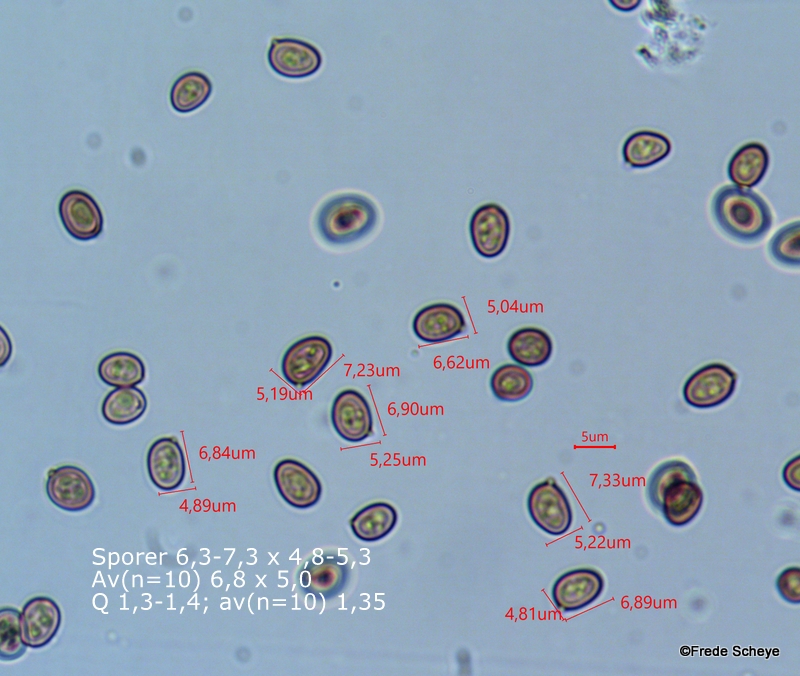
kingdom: Fungi
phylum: Basidiomycota
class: Agaricomycetes
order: Agaricales
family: Agaricaceae
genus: Agaricus
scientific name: Agaricus campestris
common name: mark-champignon
